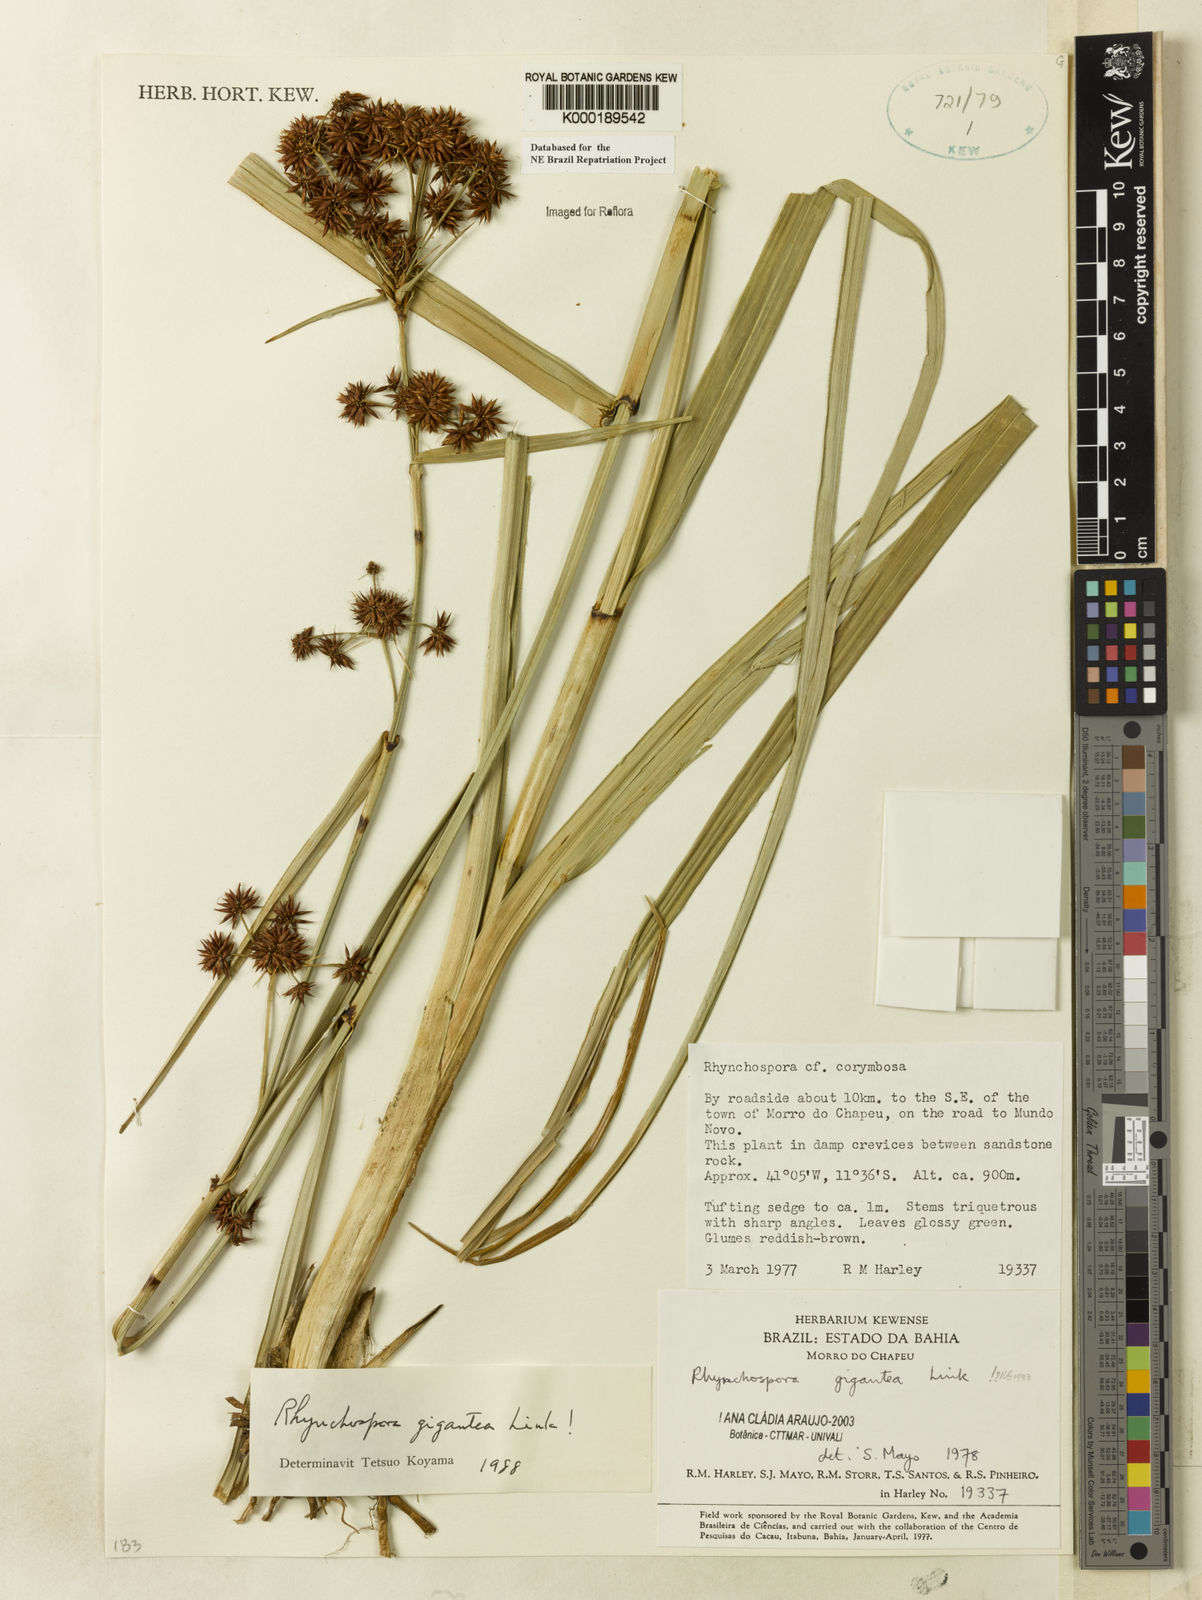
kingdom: Plantae
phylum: Tracheophyta
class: Liliopsida
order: Poales
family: Cyperaceae
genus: Rhynchospora
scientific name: Rhynchospora gigantea
